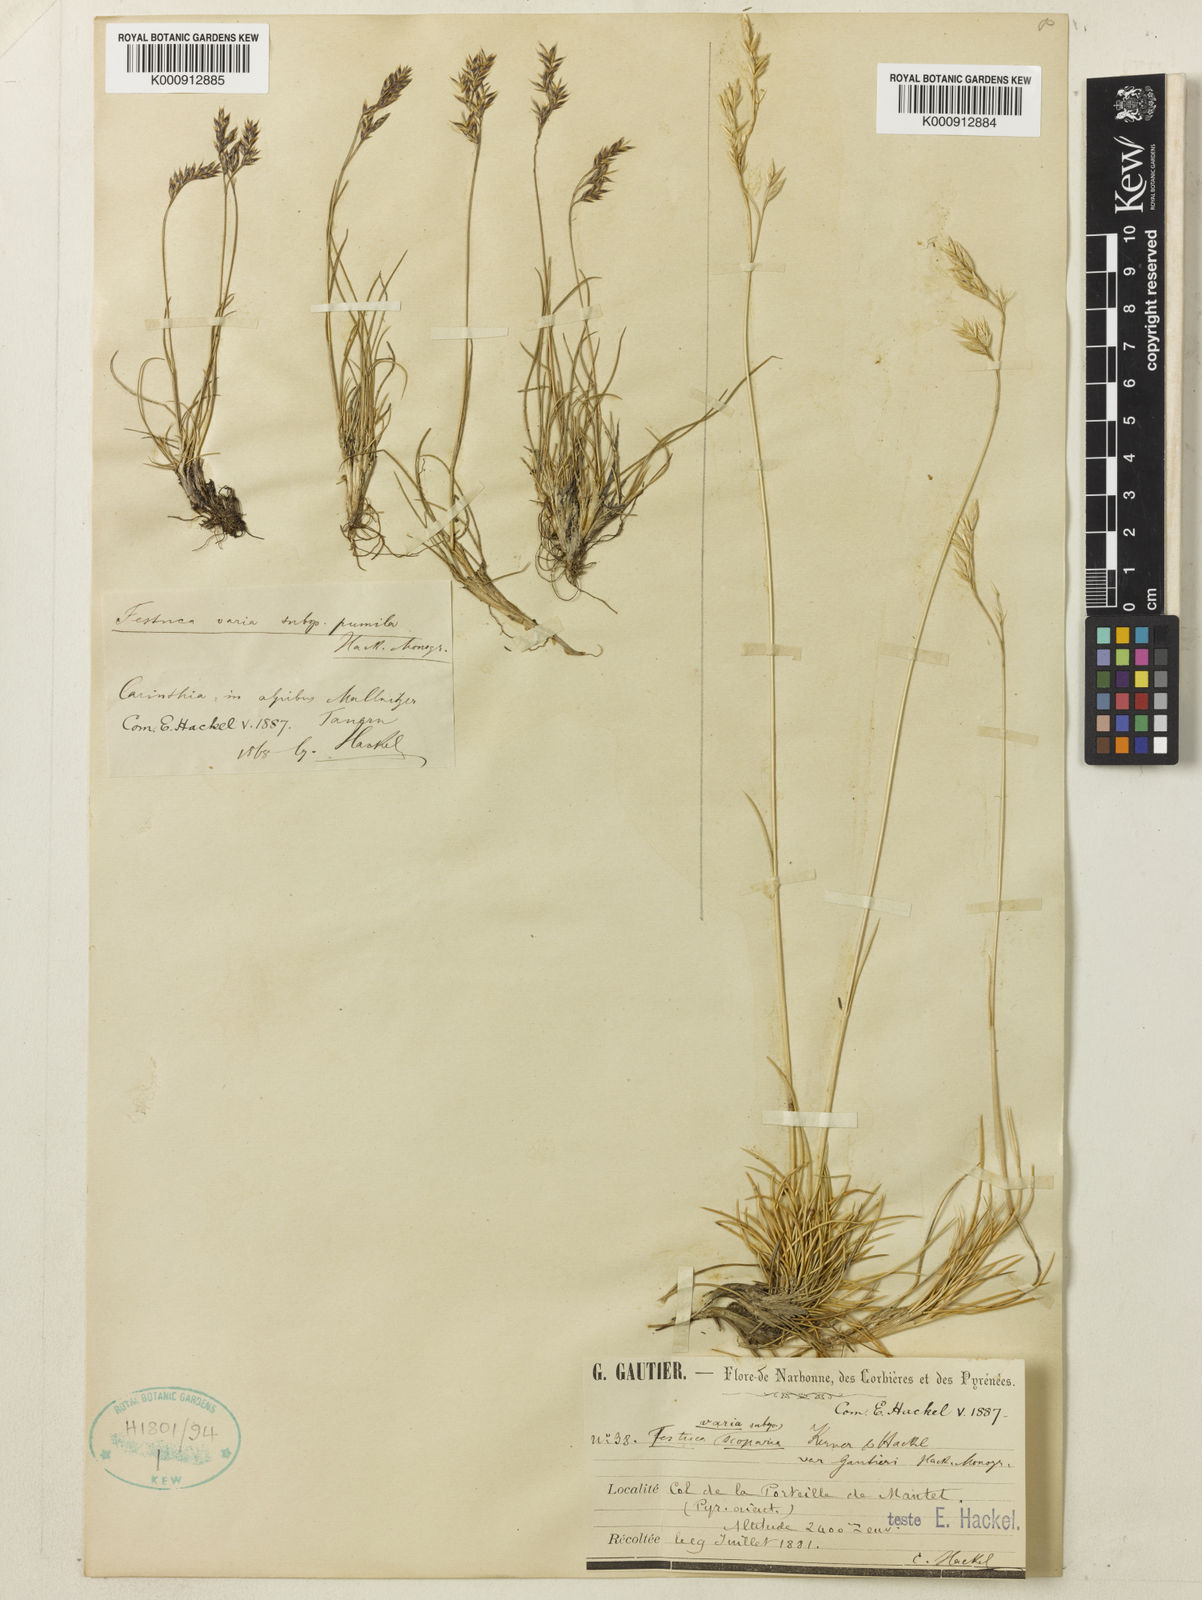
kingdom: Plantae
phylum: Tracheophyta
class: Liliopsida
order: Poales
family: Poaceae
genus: Festuca
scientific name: Festuca gautieri
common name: Spiky fescue
